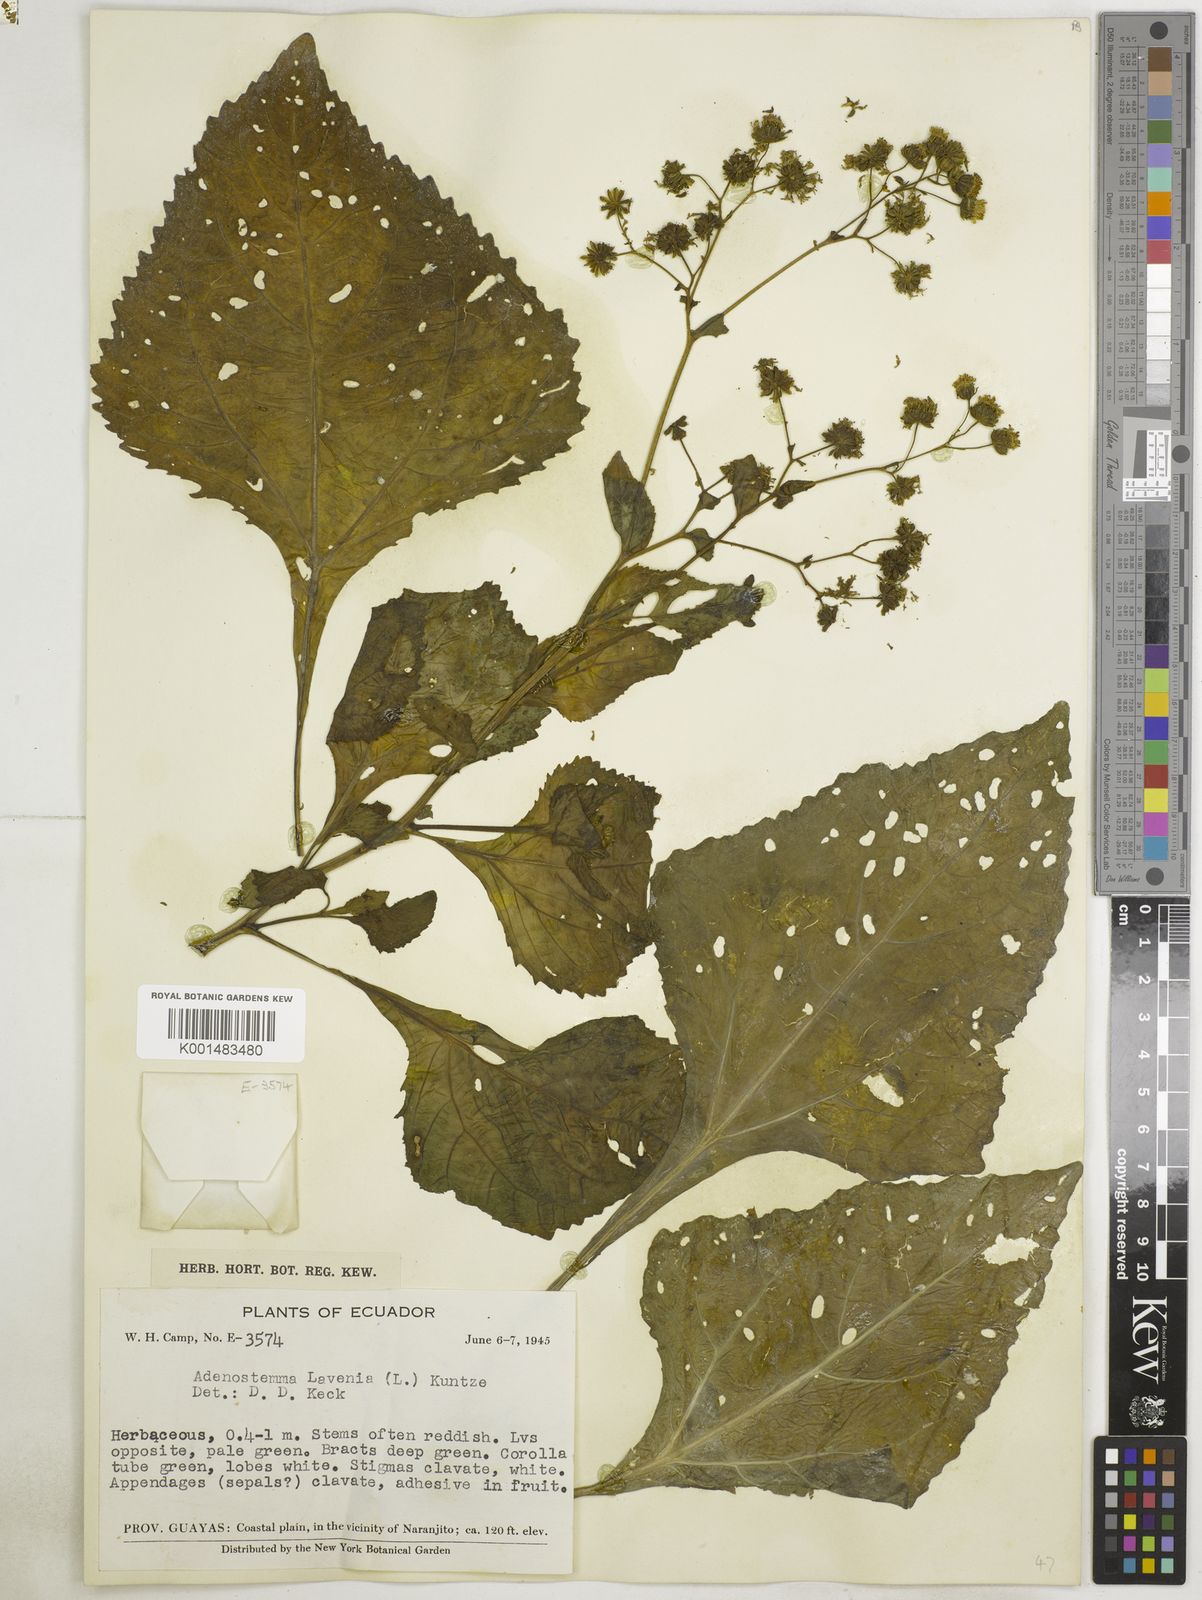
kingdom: Plantae
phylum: Tracheophyta
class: Magnoliopsida
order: Asterales
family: Asteraceae
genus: Adenostemma
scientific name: Adenostemma lavenia
